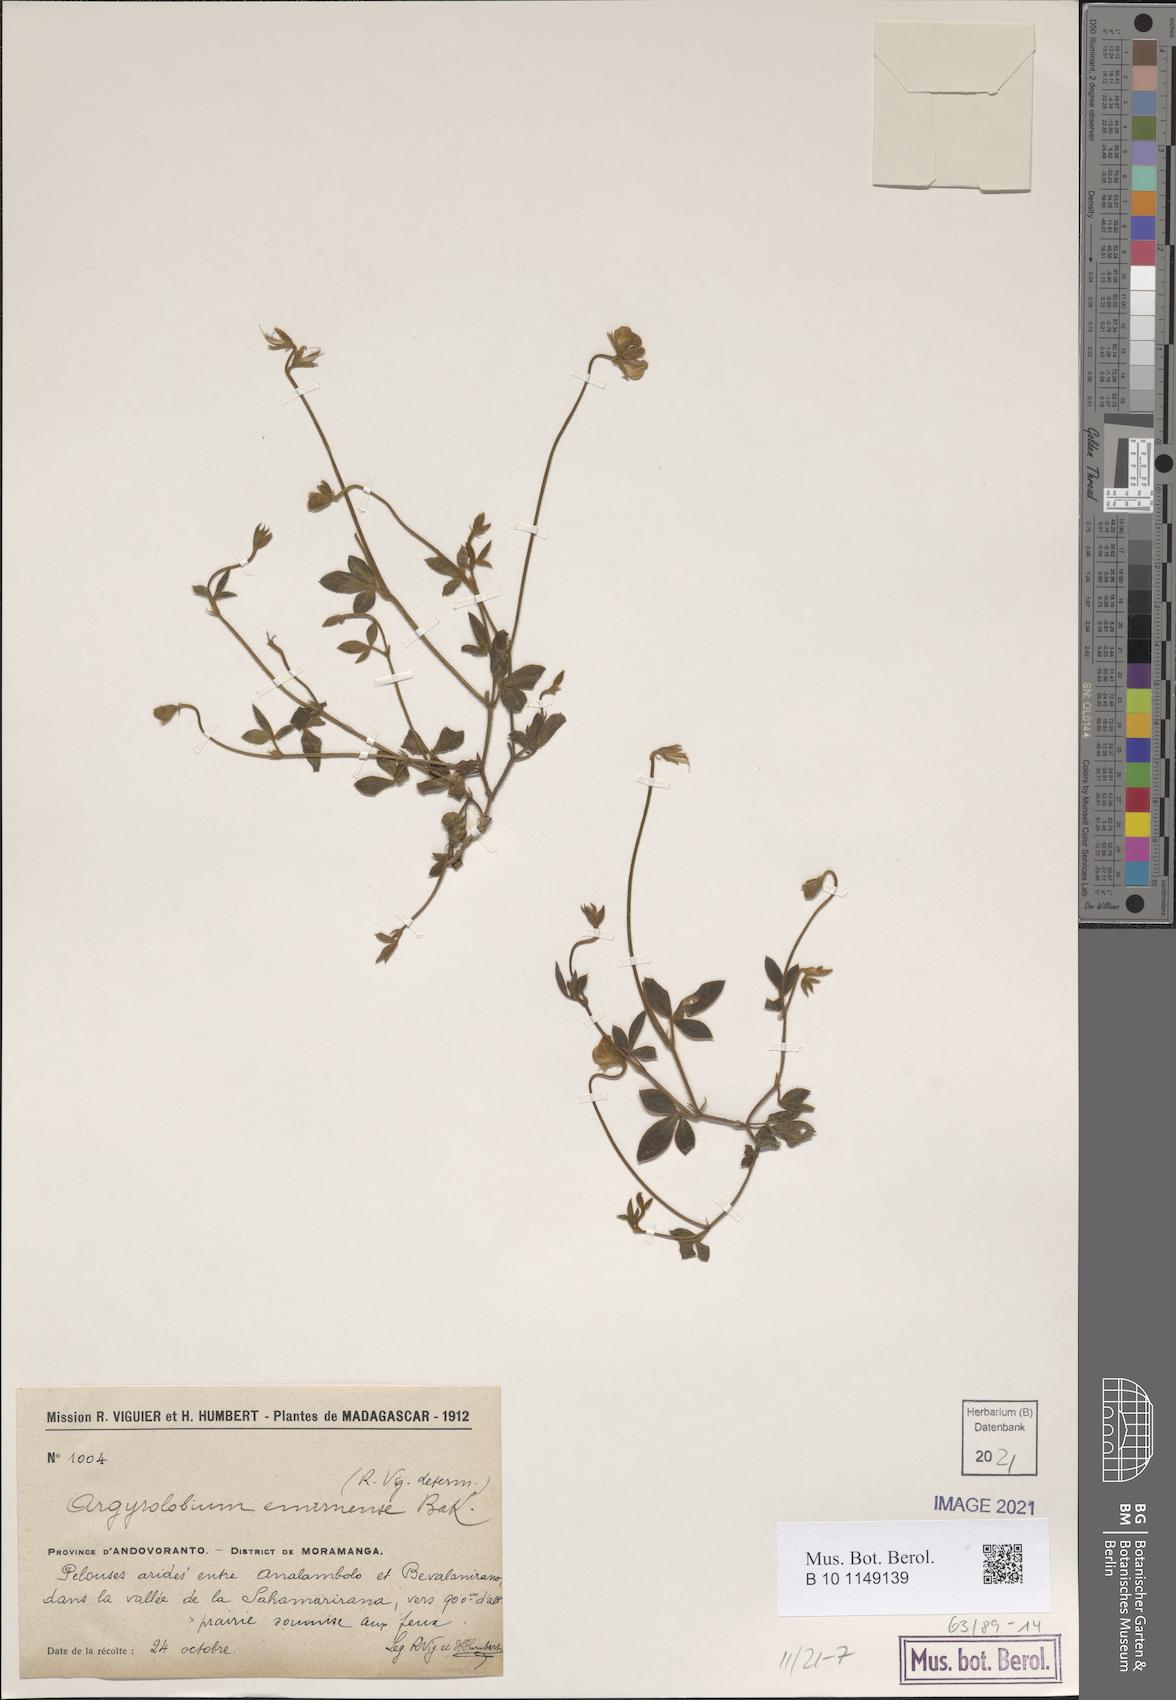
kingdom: Plantae
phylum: Tracheophyta
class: Magnoliopsida
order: Fabales
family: Fabaceae
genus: Argyrolobium
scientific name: Argyrolobium pedunculare
